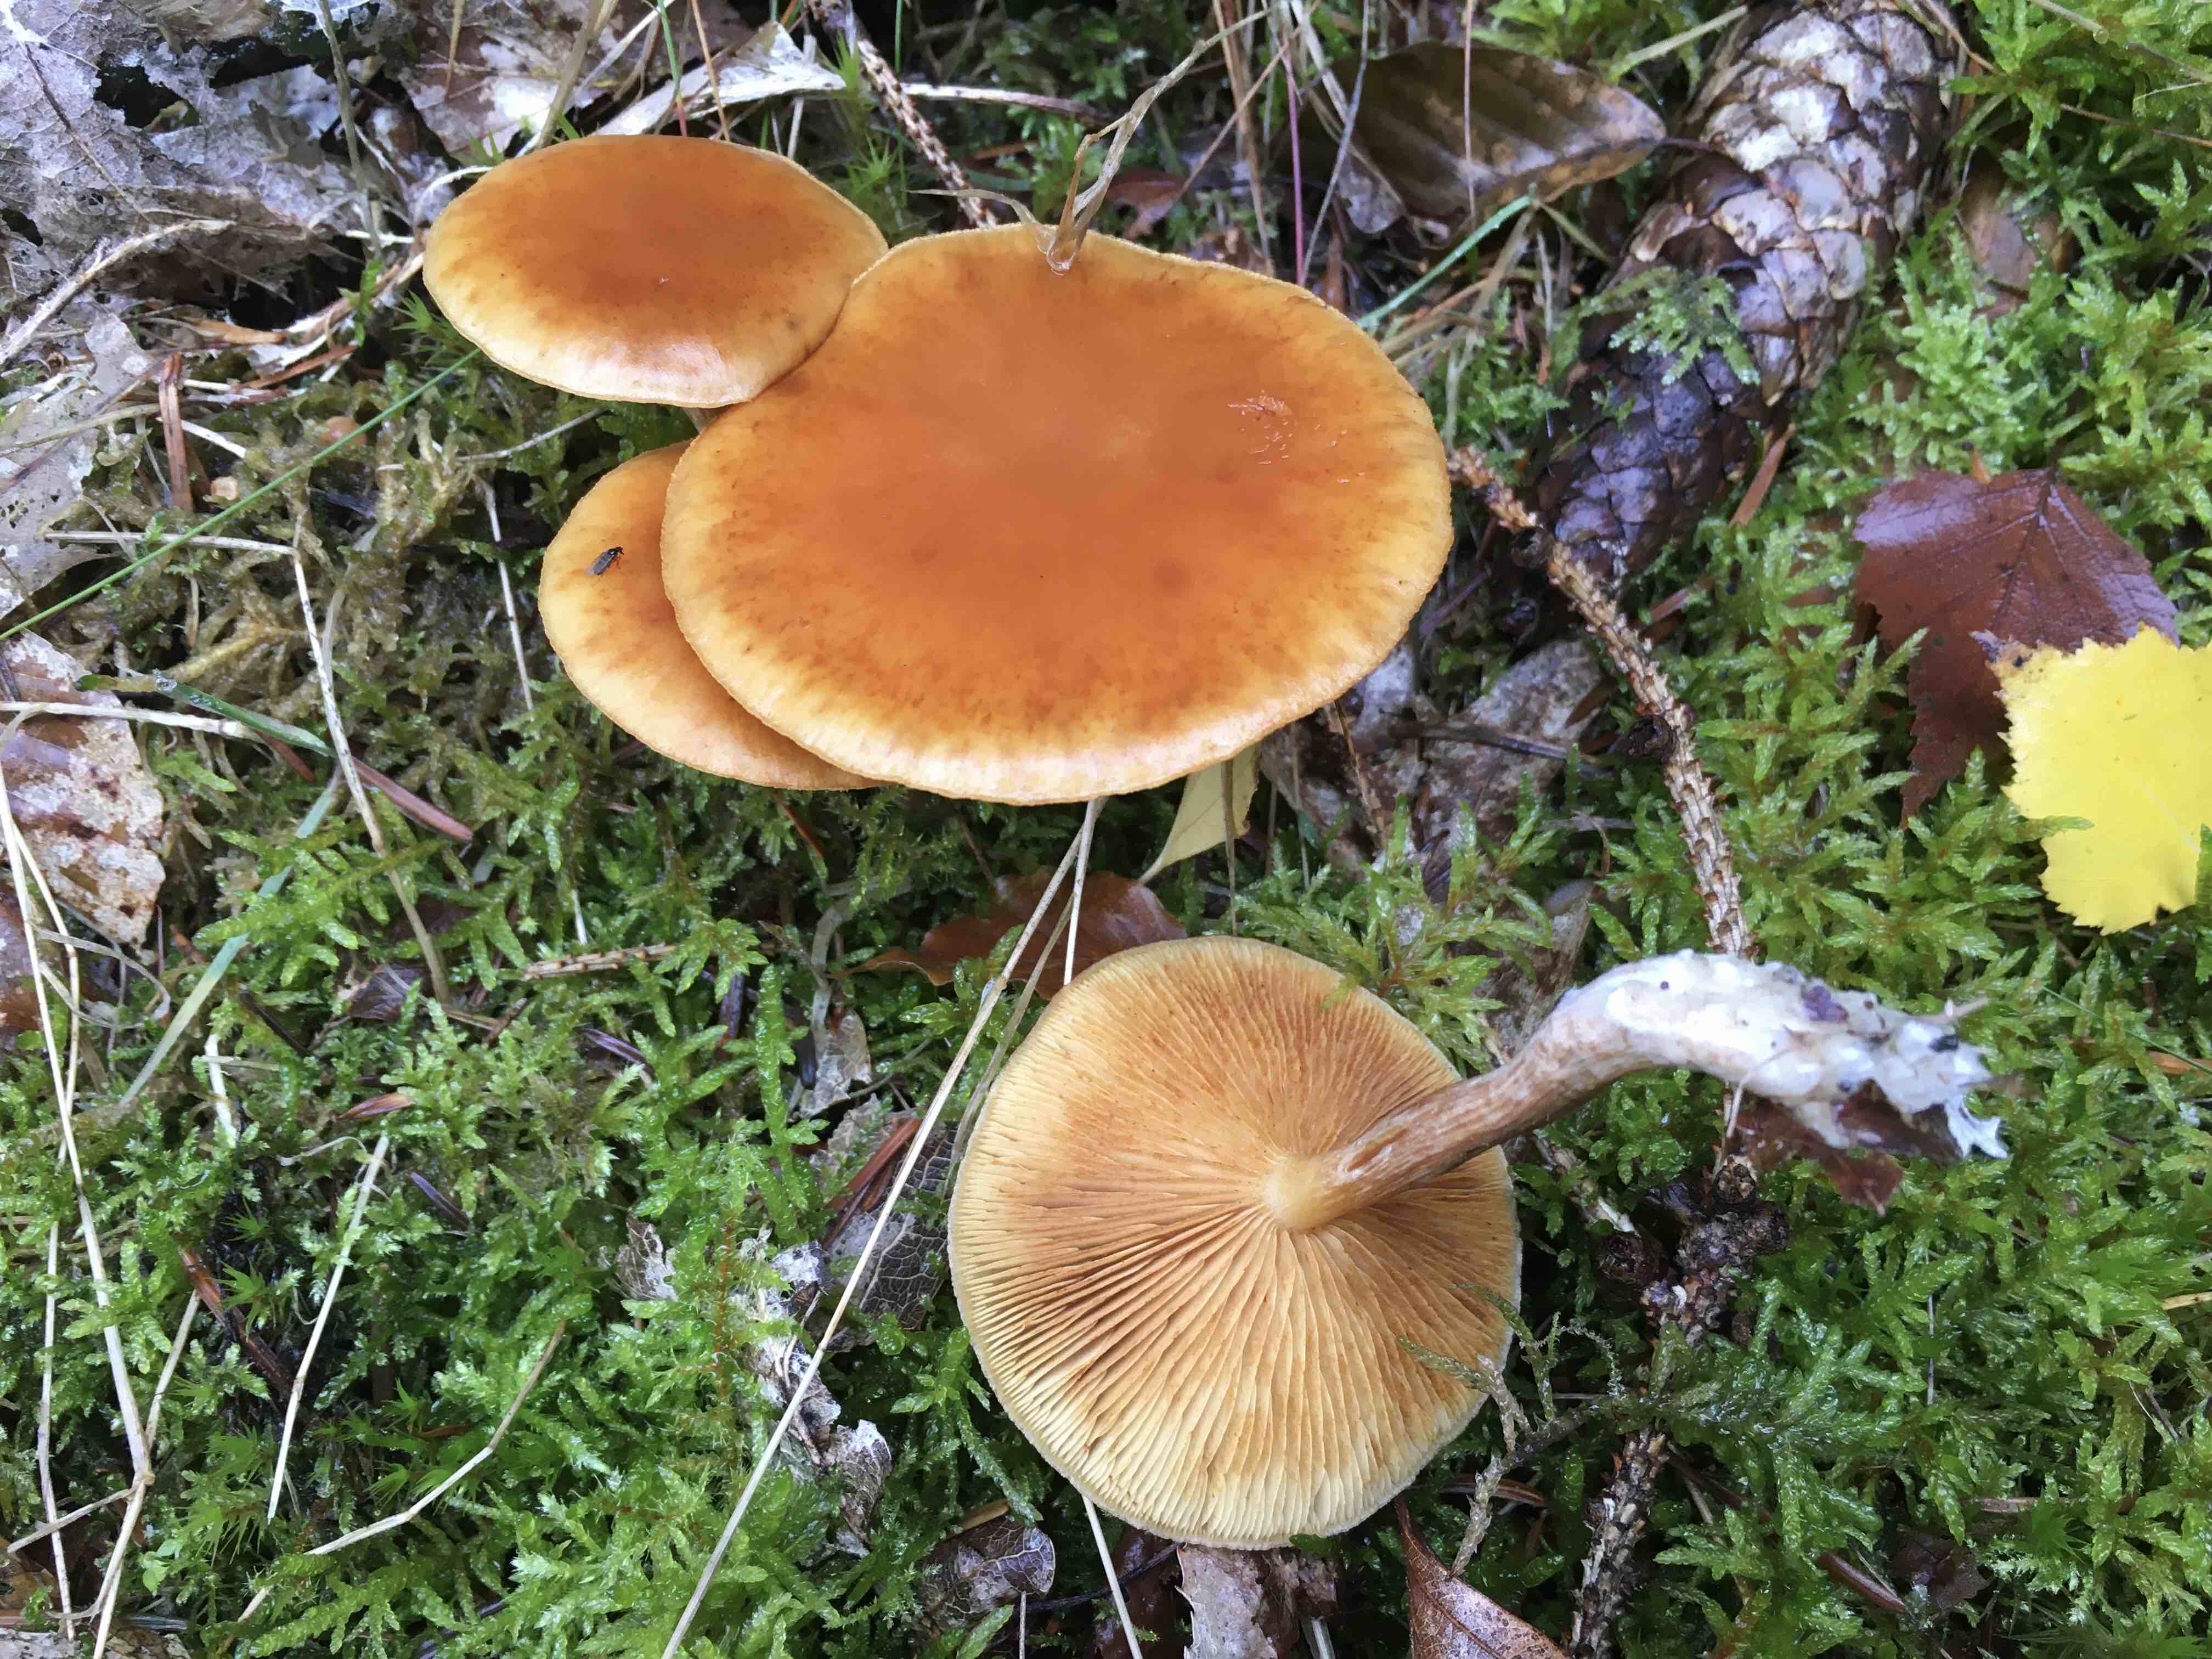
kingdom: Fungi
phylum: Basidiomycota
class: Agaricomycetes
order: Agaricales
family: Hymenogastraceae
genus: Gymnopilus
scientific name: Gymnopilus penetrans
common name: plettet flammehat
